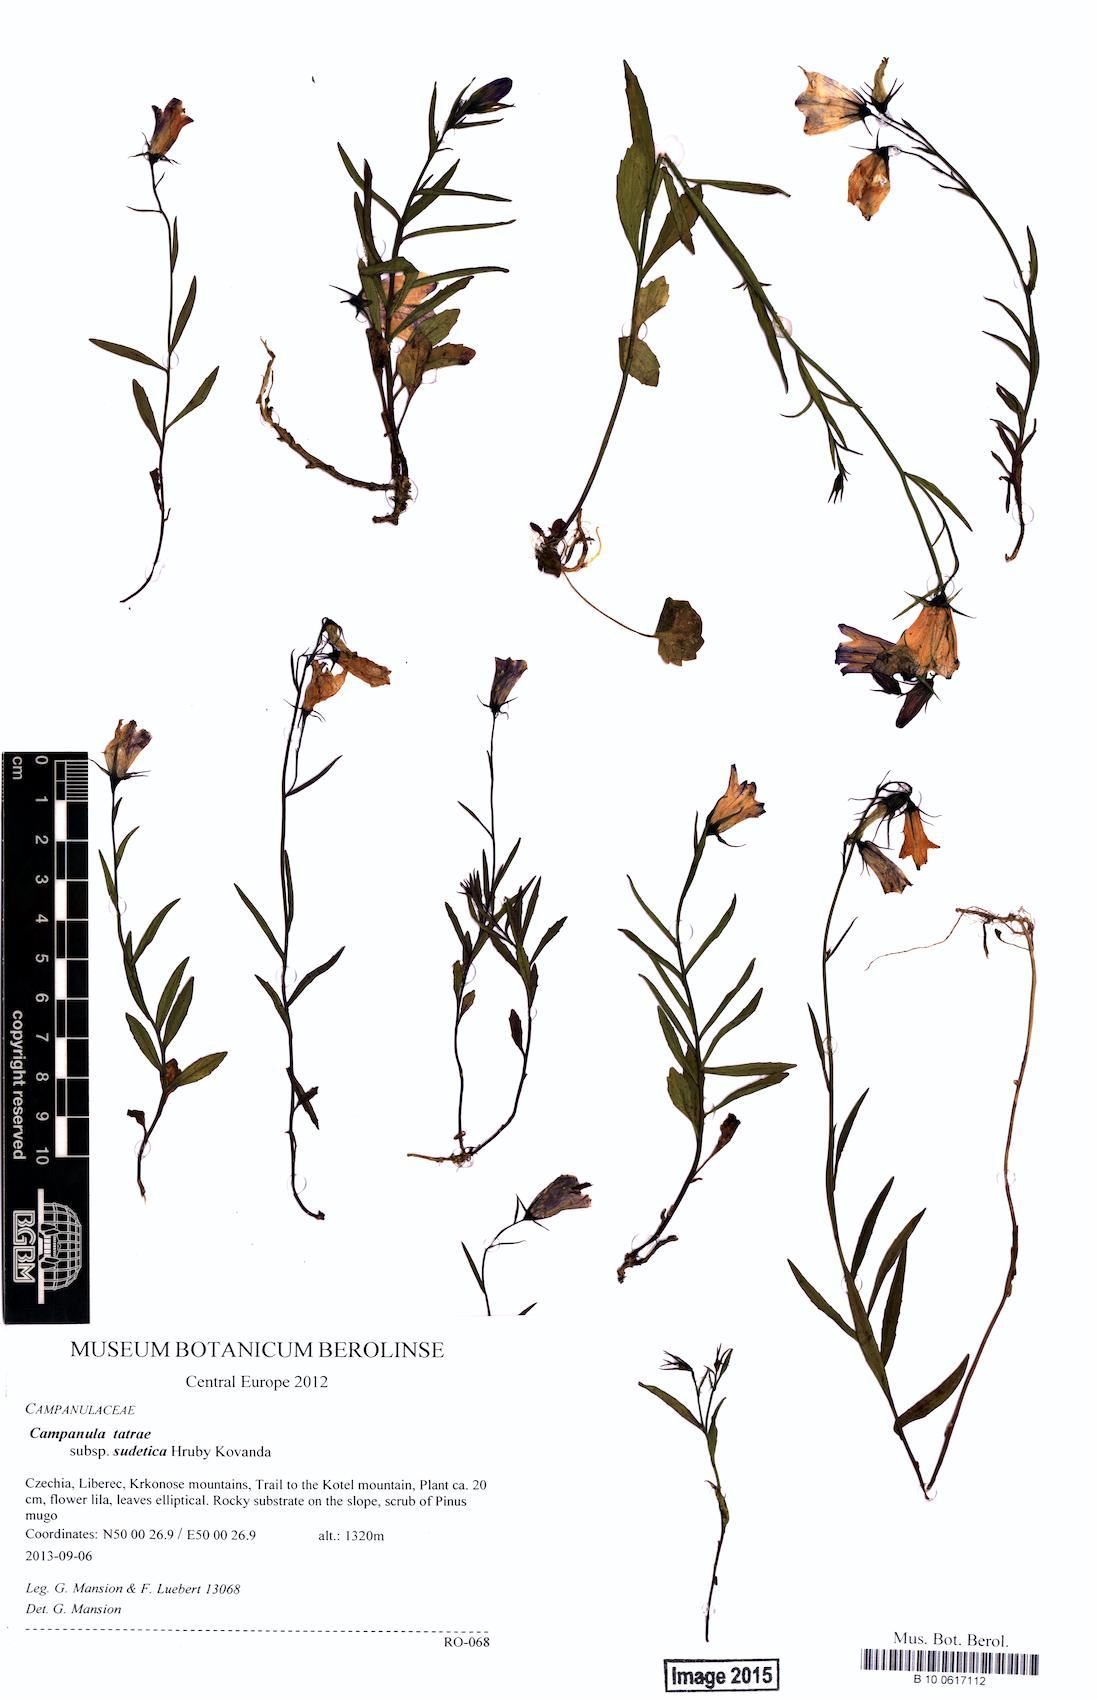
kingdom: Plantae
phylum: Tracheophyta
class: Magnoliopsida
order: Asterales
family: Campanulaceae
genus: Campanula
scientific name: Campanula tatrae
